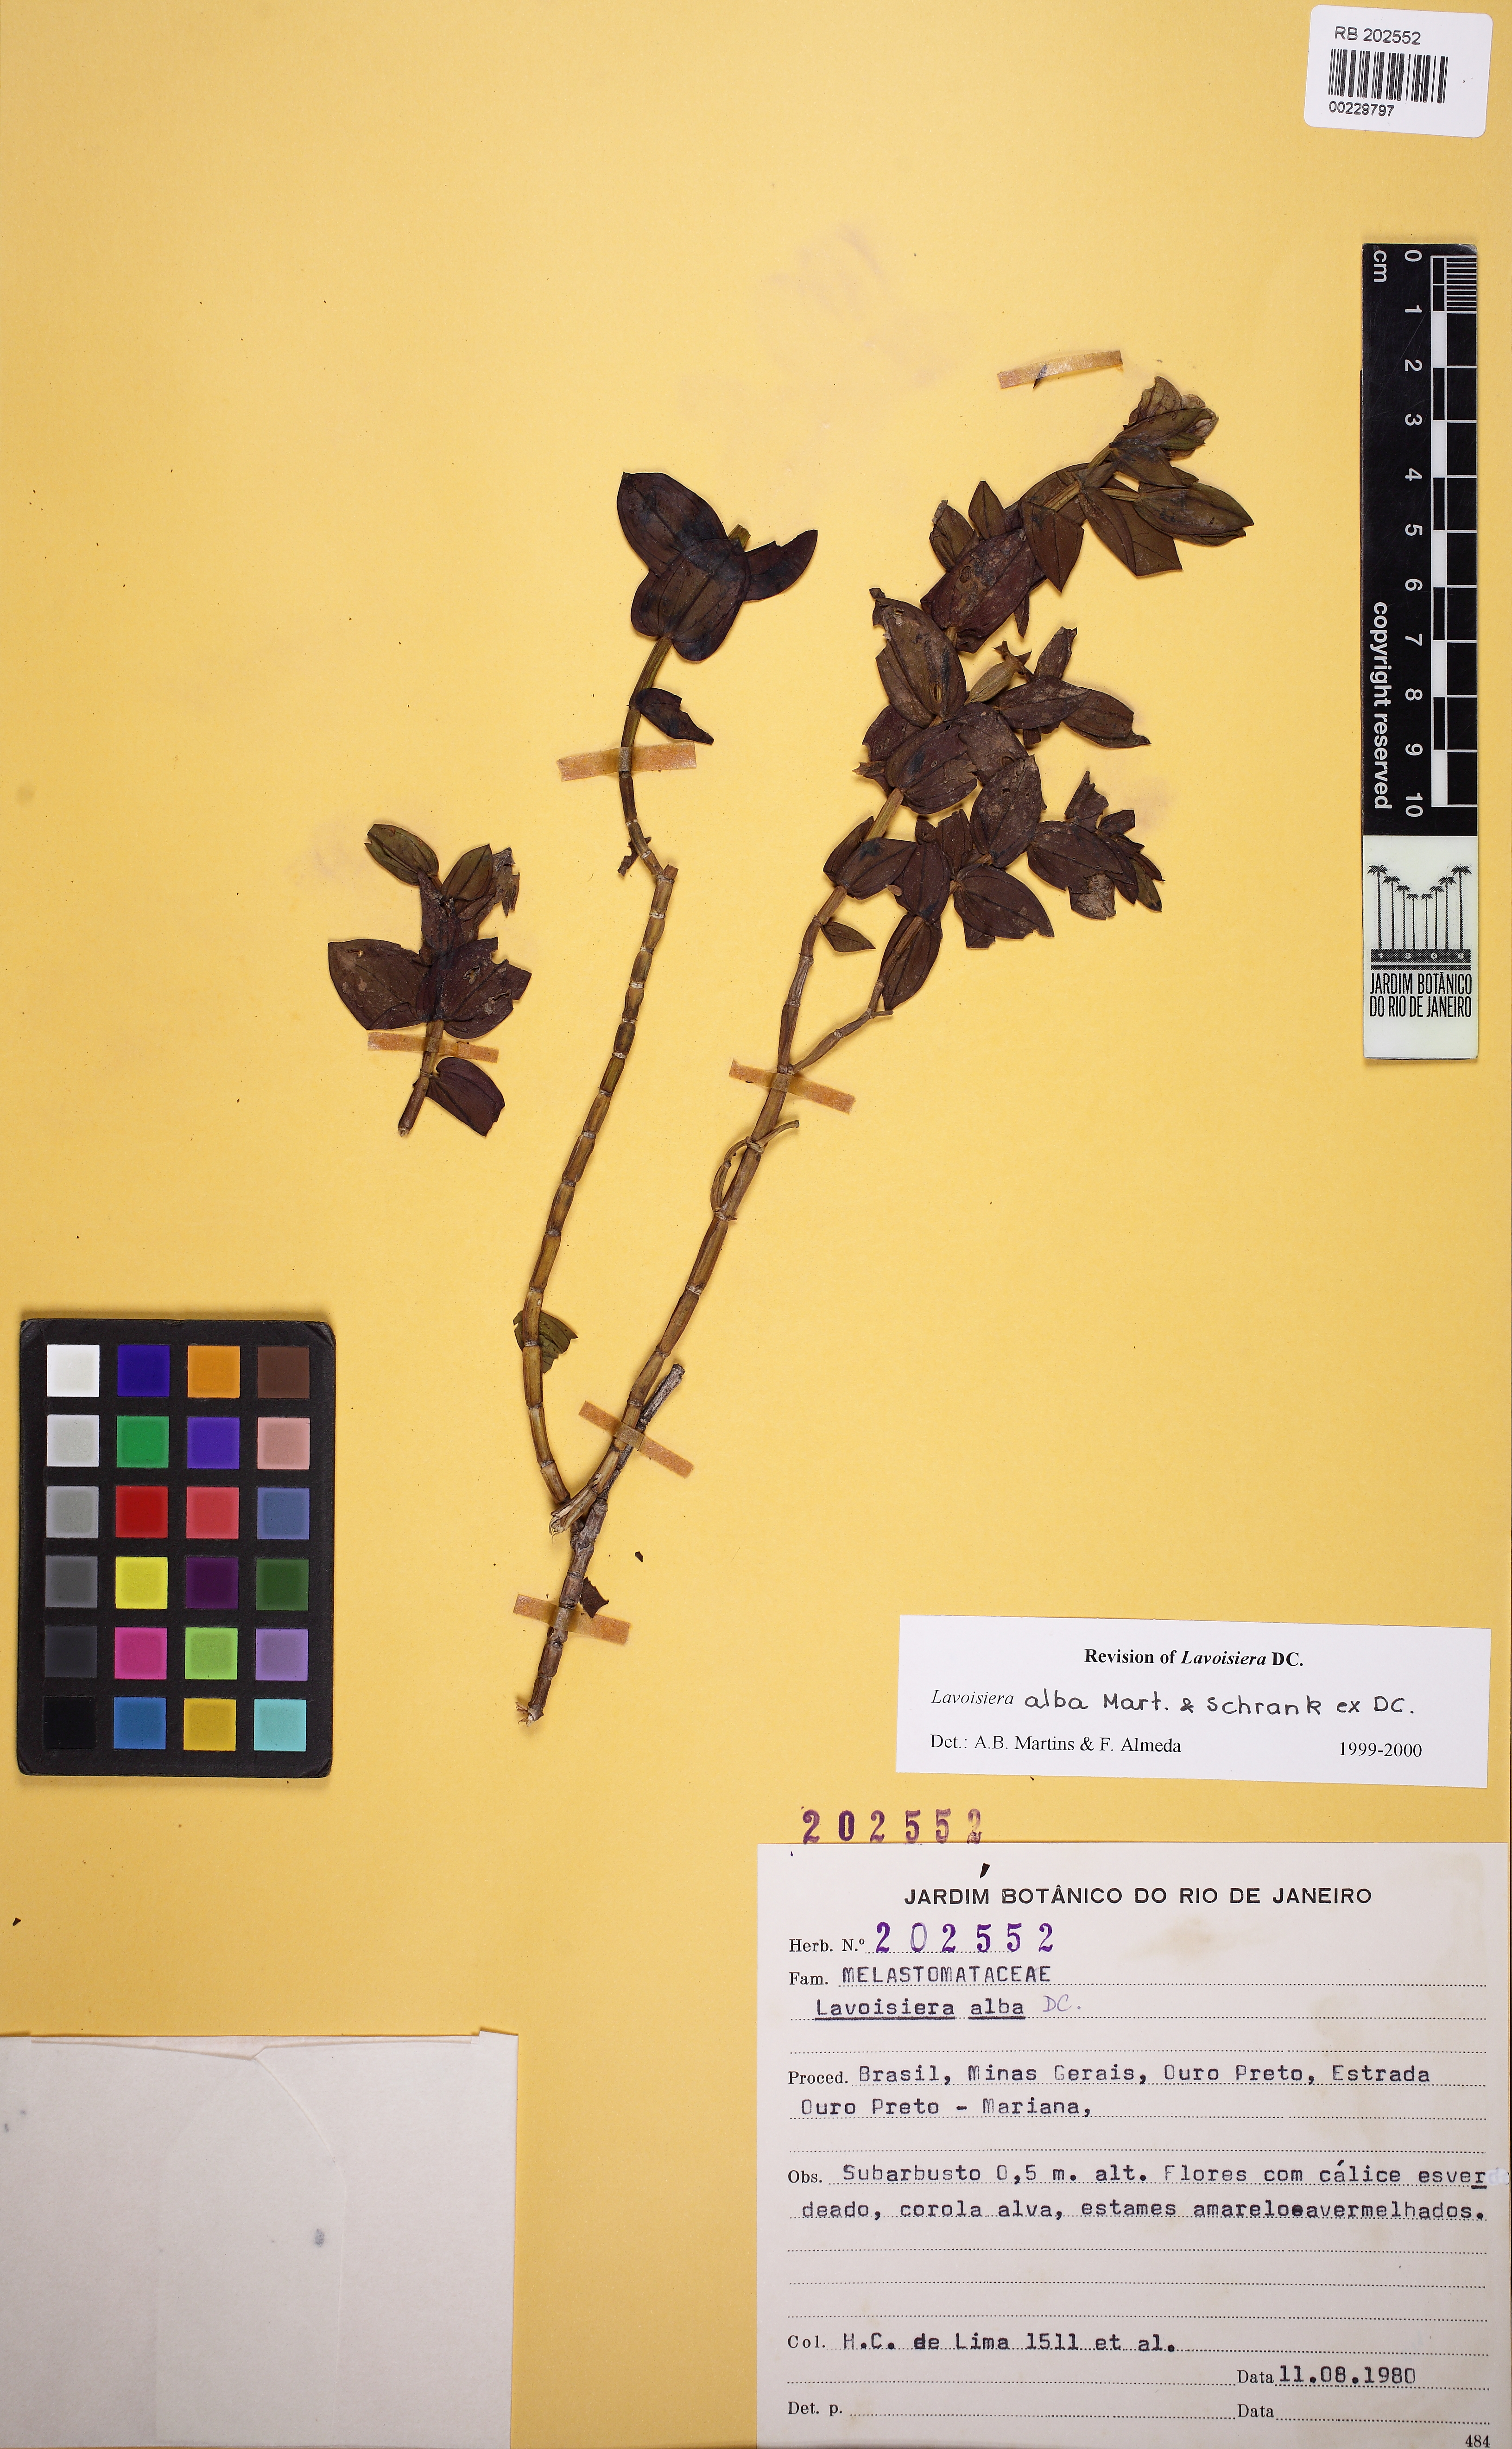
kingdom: Plantae
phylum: Tracheophyta
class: Magnoliopsida
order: Myrtales
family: Melastomataceae
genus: Microlicia
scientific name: Microlicia alba
